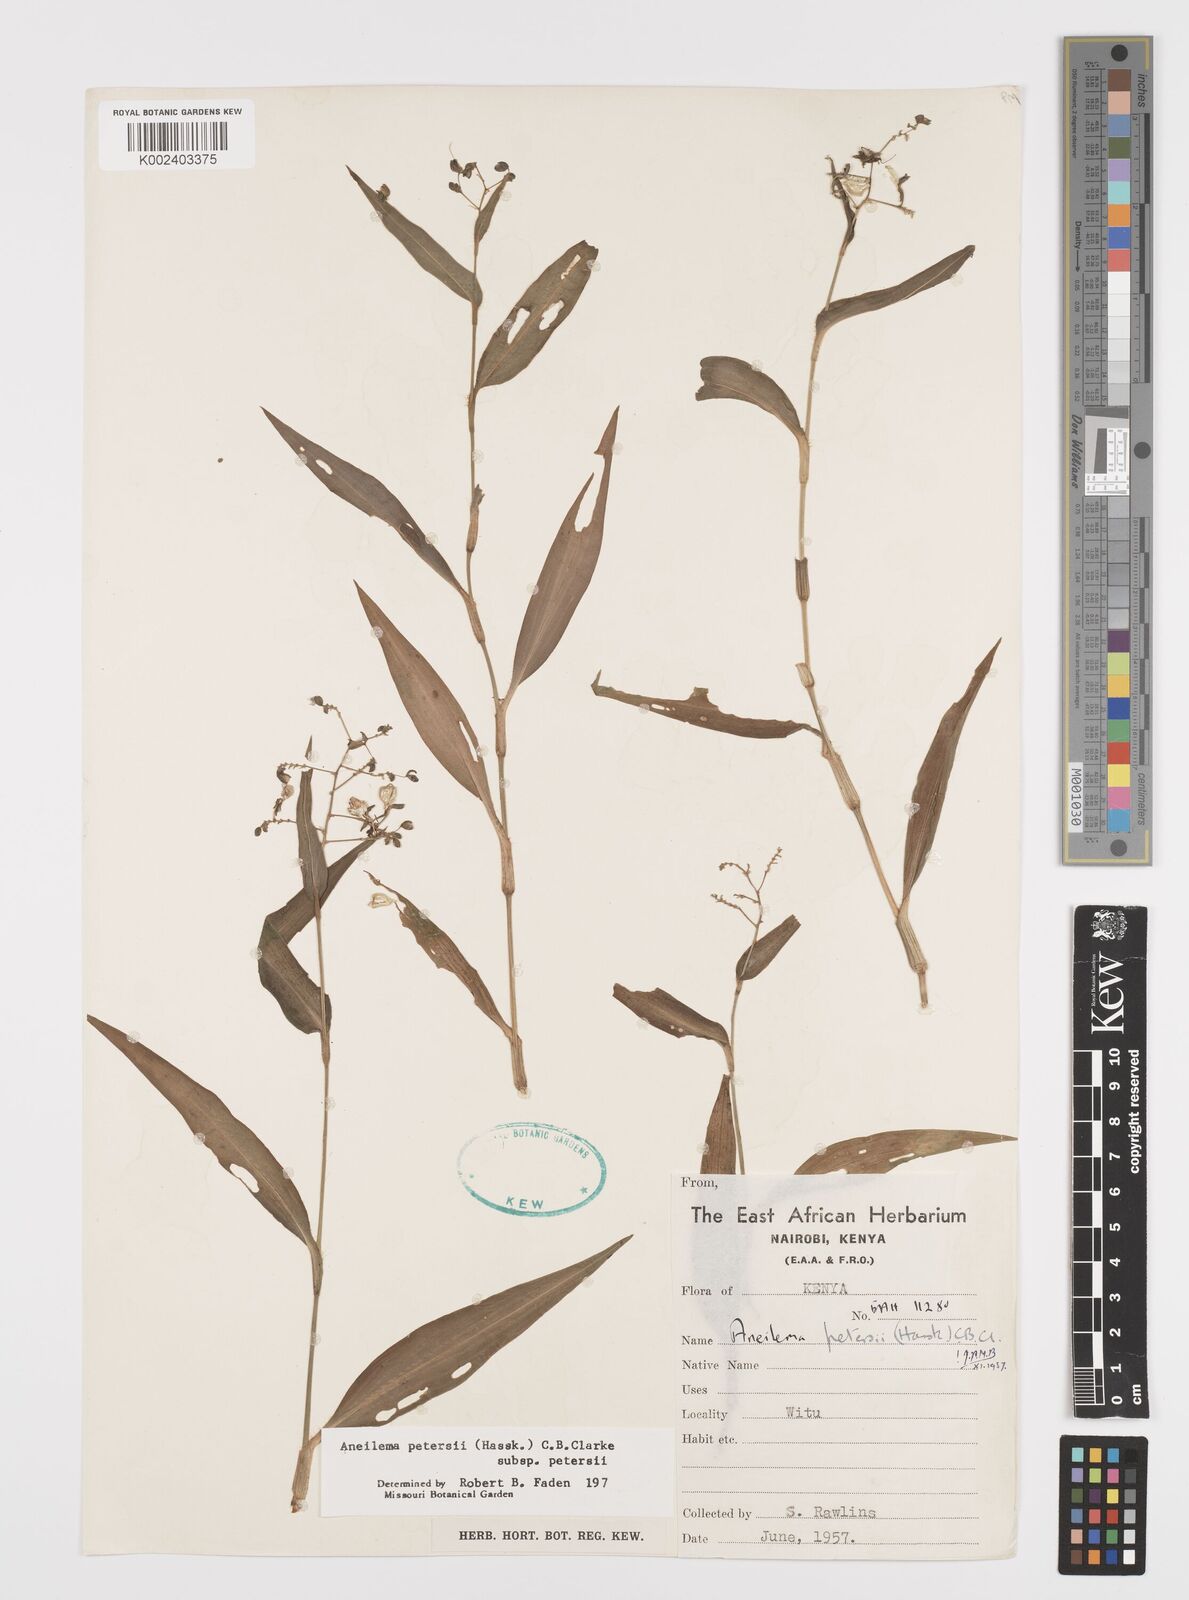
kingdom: Plantae
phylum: Tracheophyta
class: Liliopsida
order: Commelinales
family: Commelinaceae
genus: Aneilema
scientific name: Aneilema petersii
